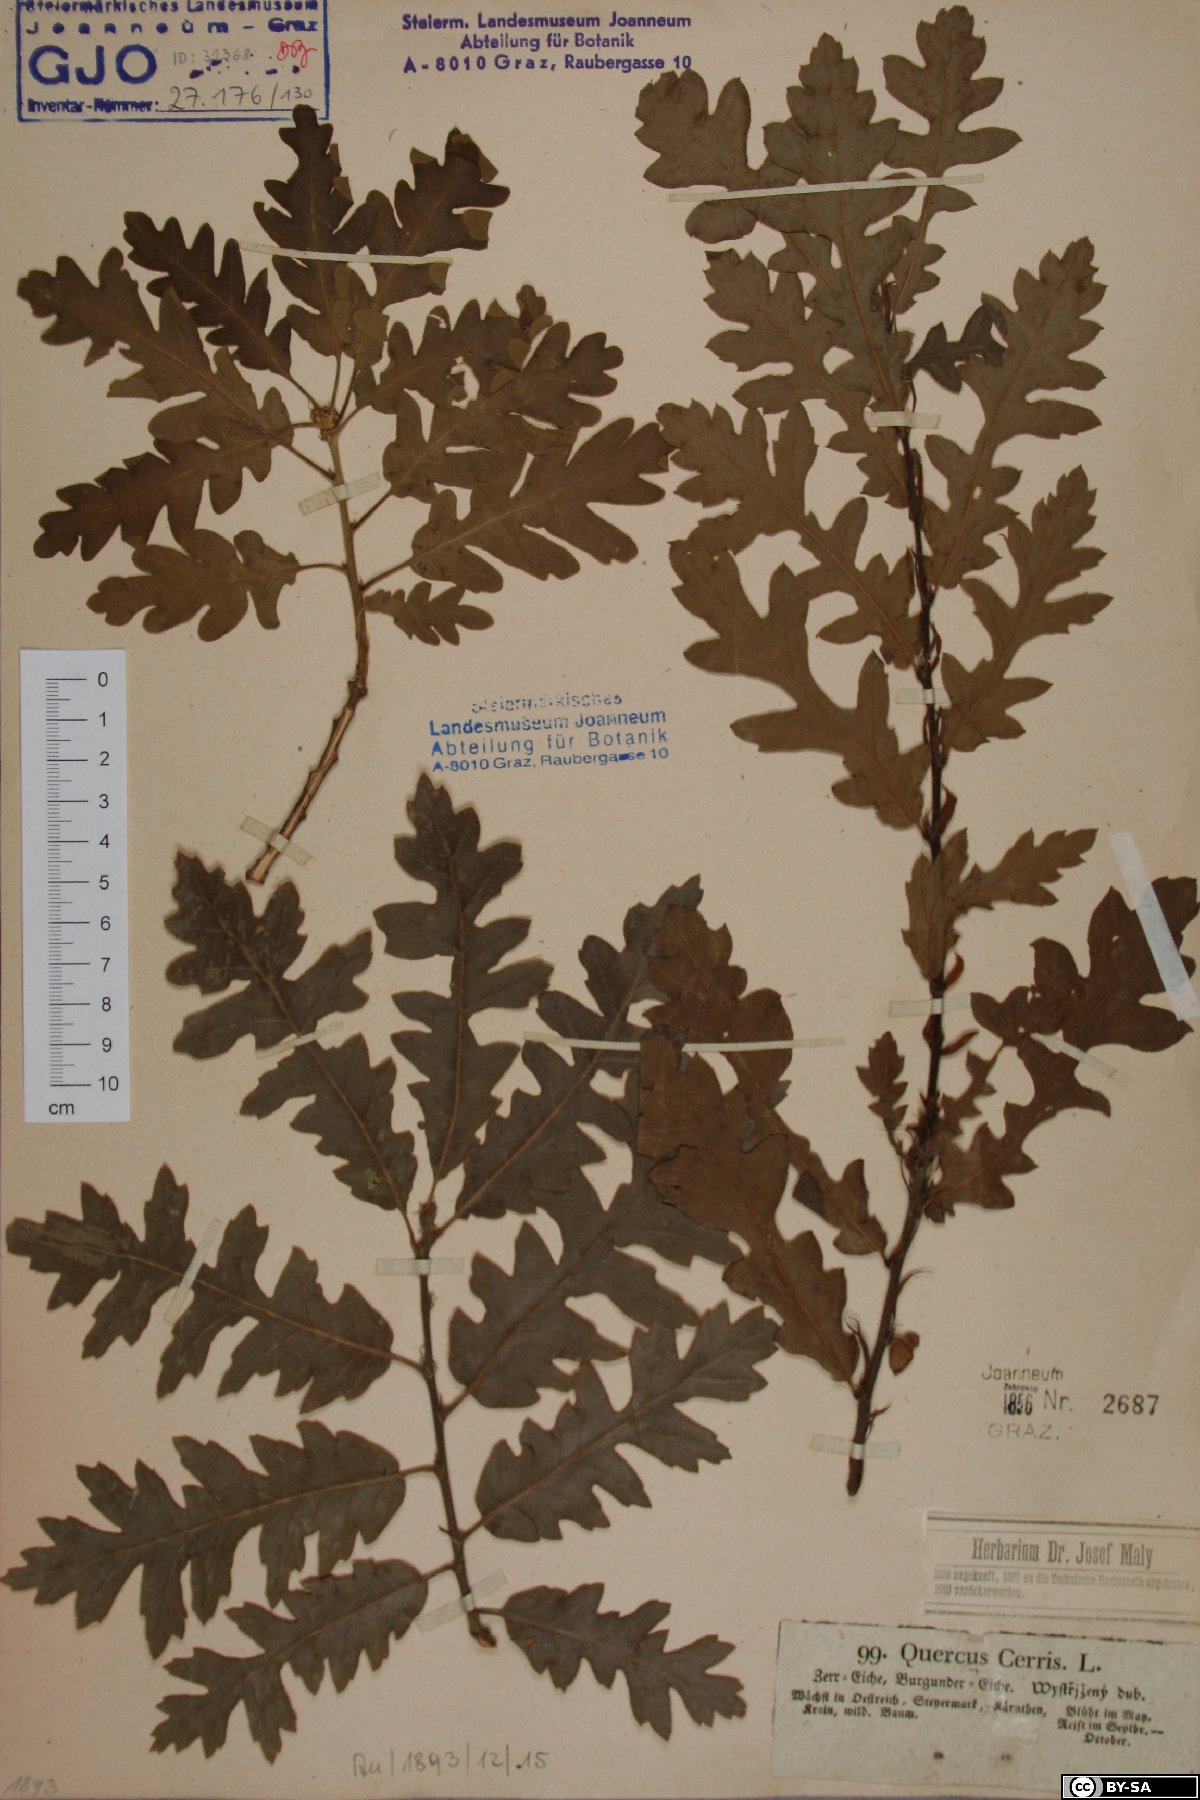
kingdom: Plantae
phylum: Tracheophyta
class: Magnoliopsida
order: Fagales
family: Fagaceae
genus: Quercus
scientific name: Quercus cerris
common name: Turkey oak
